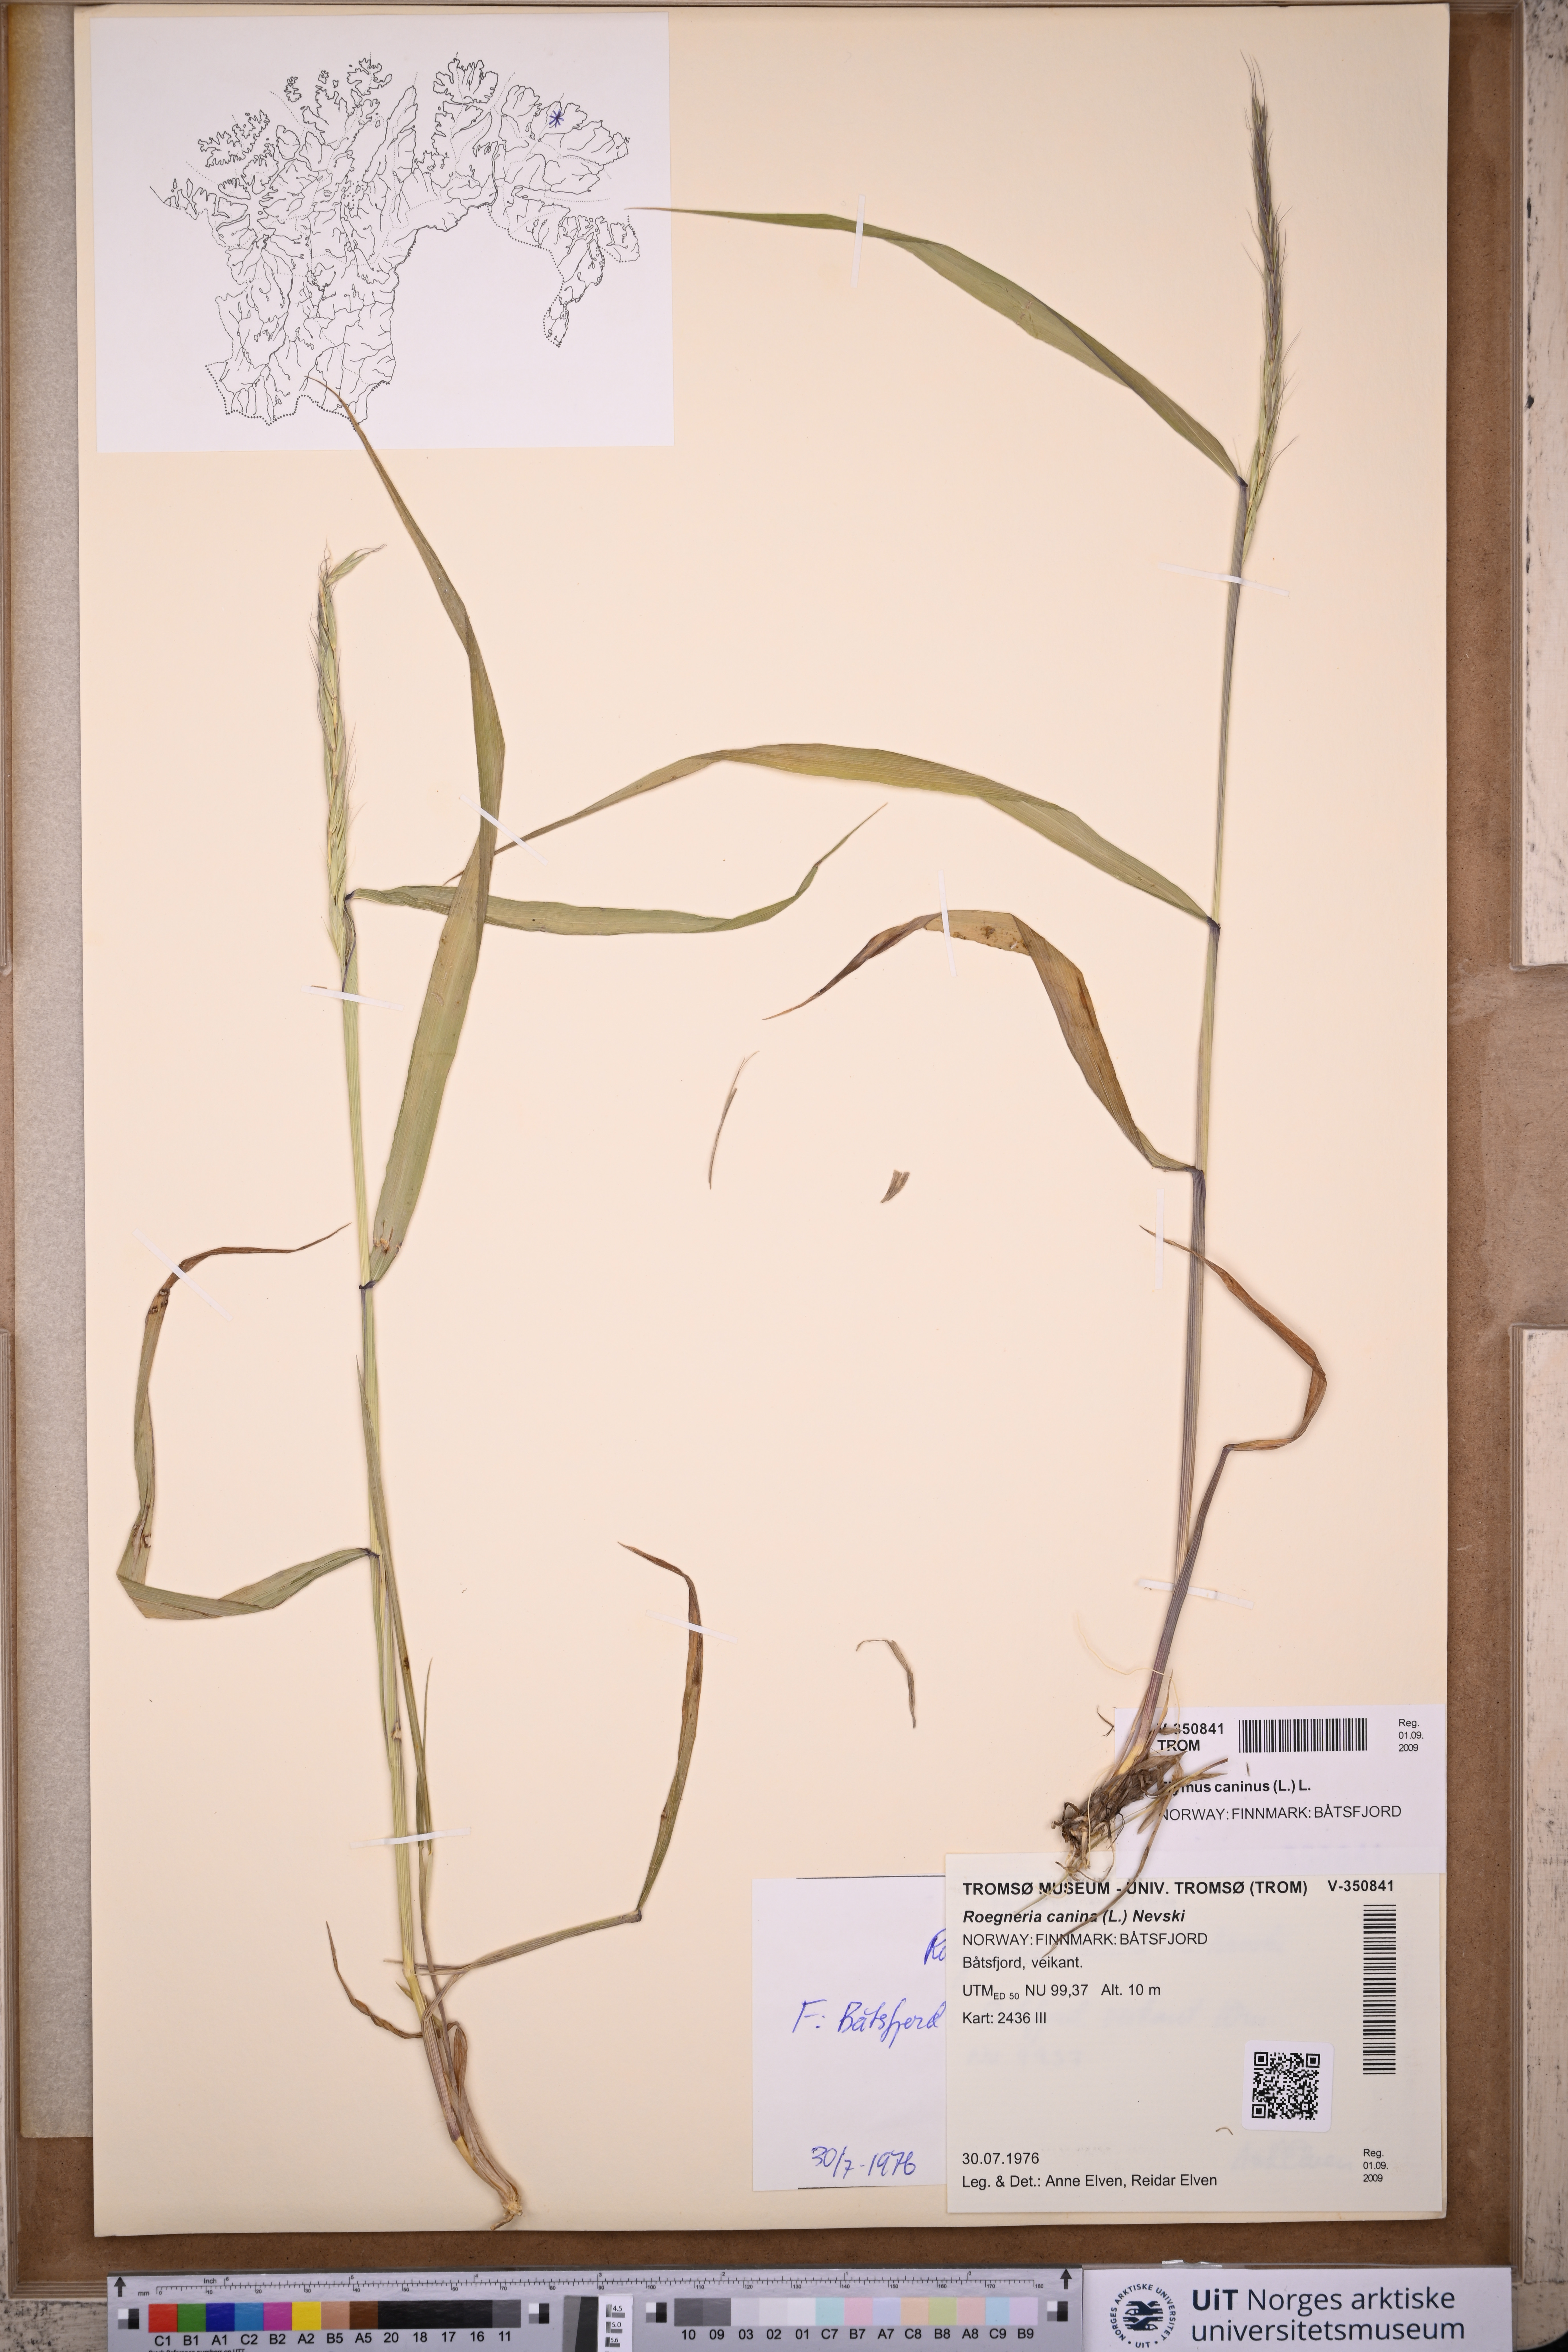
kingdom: Plantae
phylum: Tracheophyta
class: Liliopsida
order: Poales
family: Poaceae
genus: Elymus
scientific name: Elymus caninus
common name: Bearded couch
